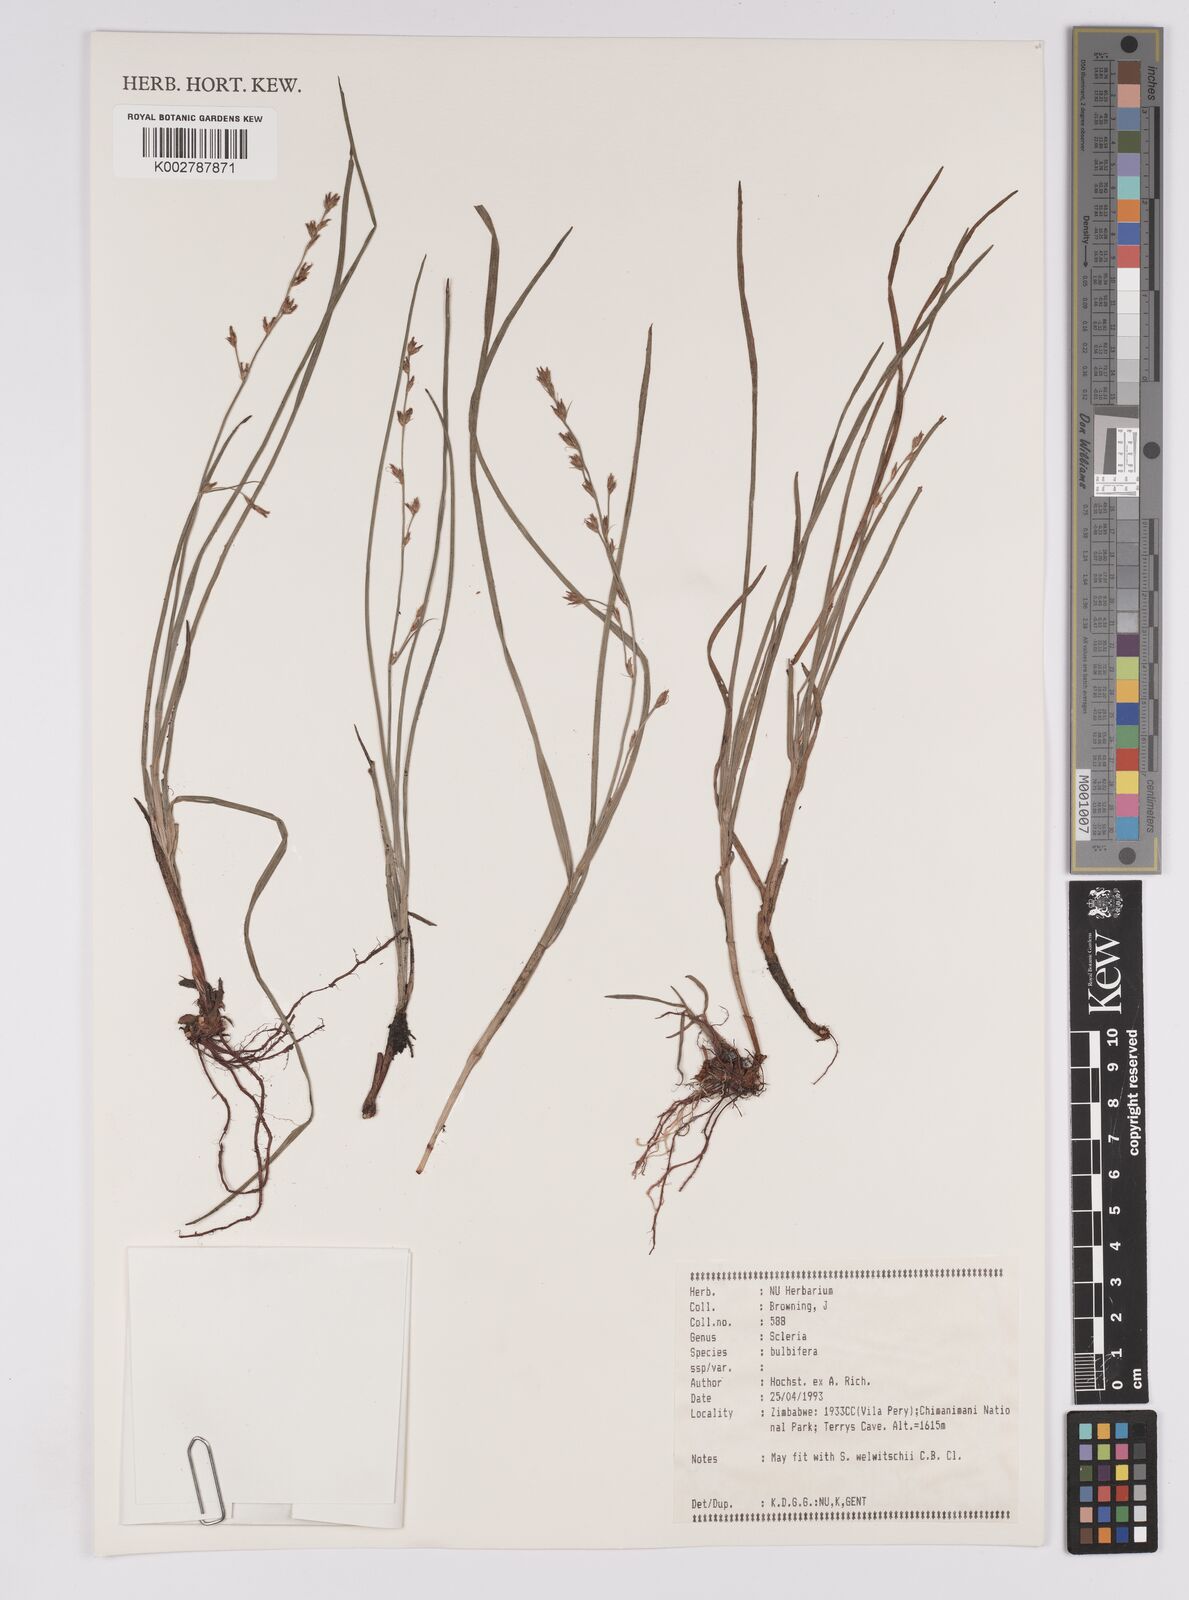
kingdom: Plantae
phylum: Tracheophyta
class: Liliopsida
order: Poales
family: Cyperaceae
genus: Scleria
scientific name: Scleria bulbifera
